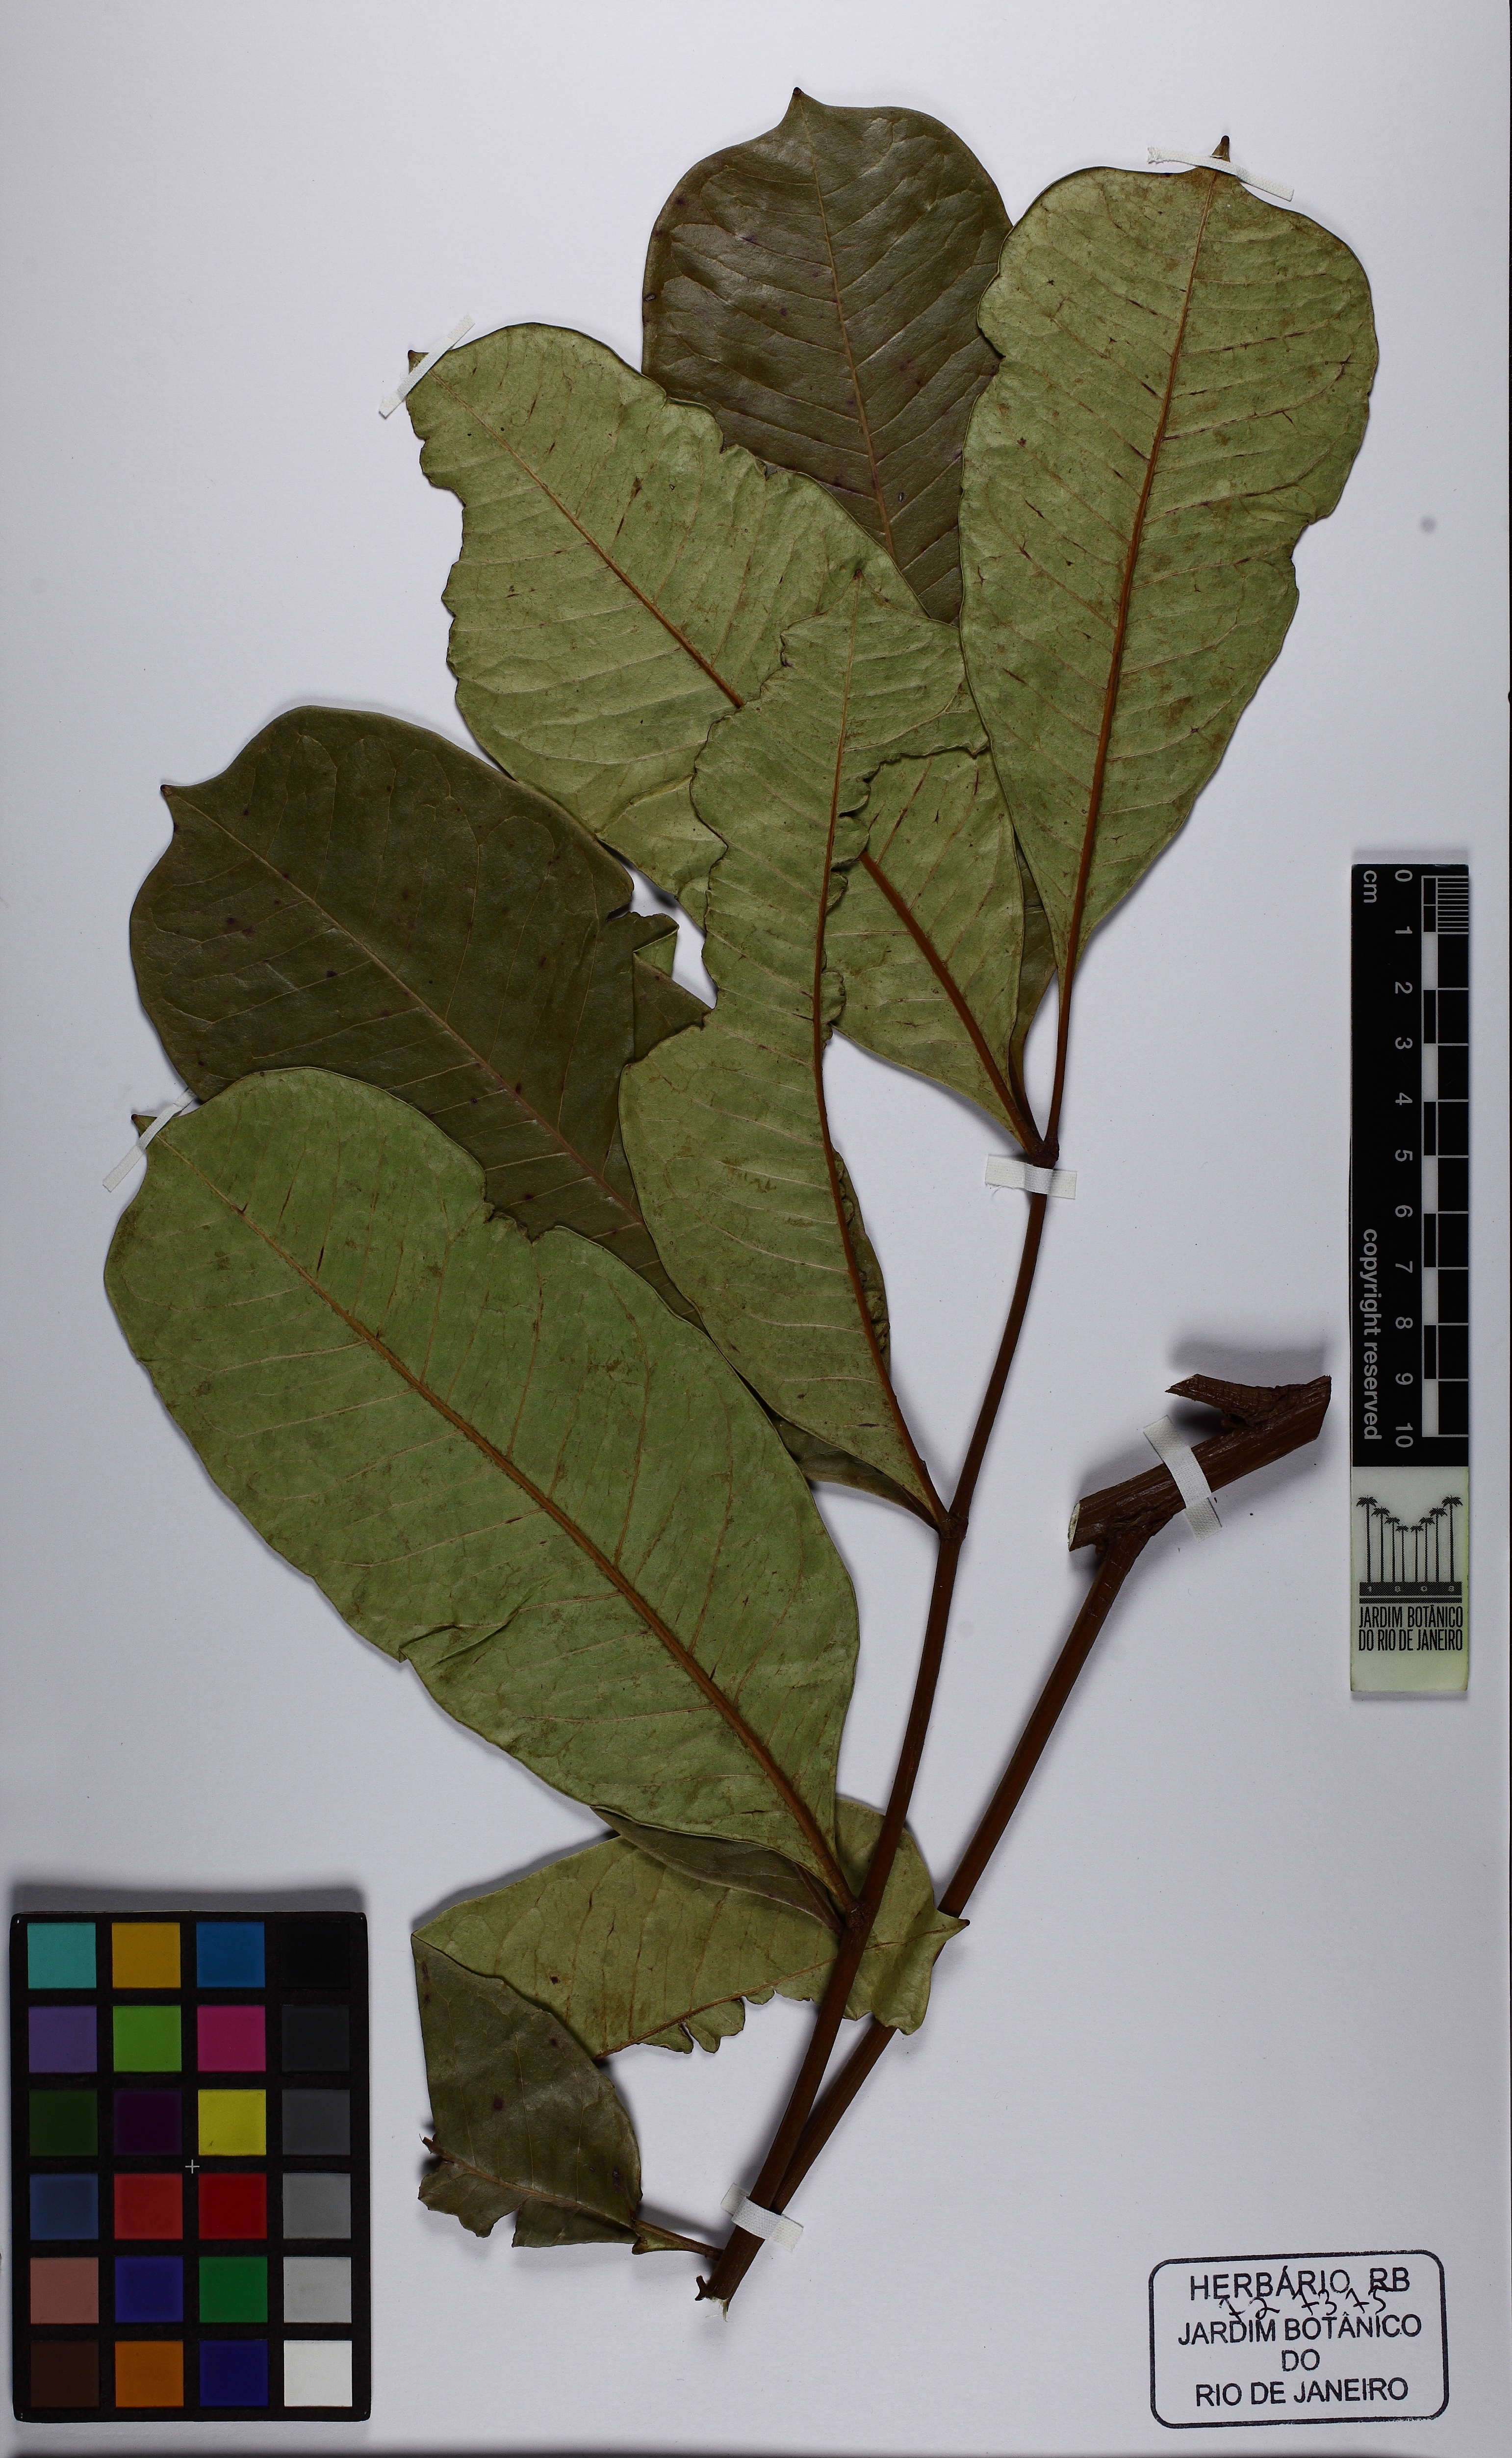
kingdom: Plantae
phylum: Tracheophyta
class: Magnoliopsida
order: Sapindales
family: Simaroubaceae
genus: Homalolepis
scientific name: Homalolepis cedron
